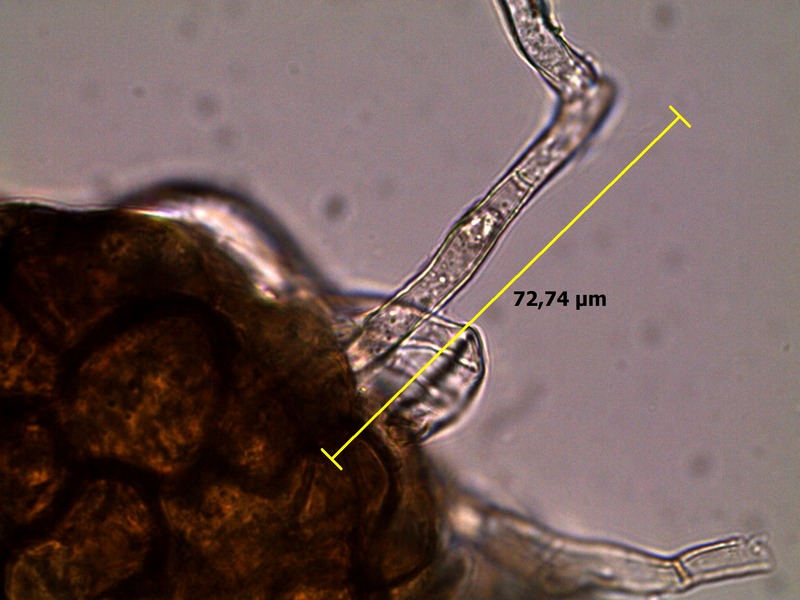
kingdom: Fungi
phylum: Ascomycota
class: Leotiomycetes
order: Helotiales
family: Erysiphaceae
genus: Podosphaera
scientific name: Podosphaera fusca
